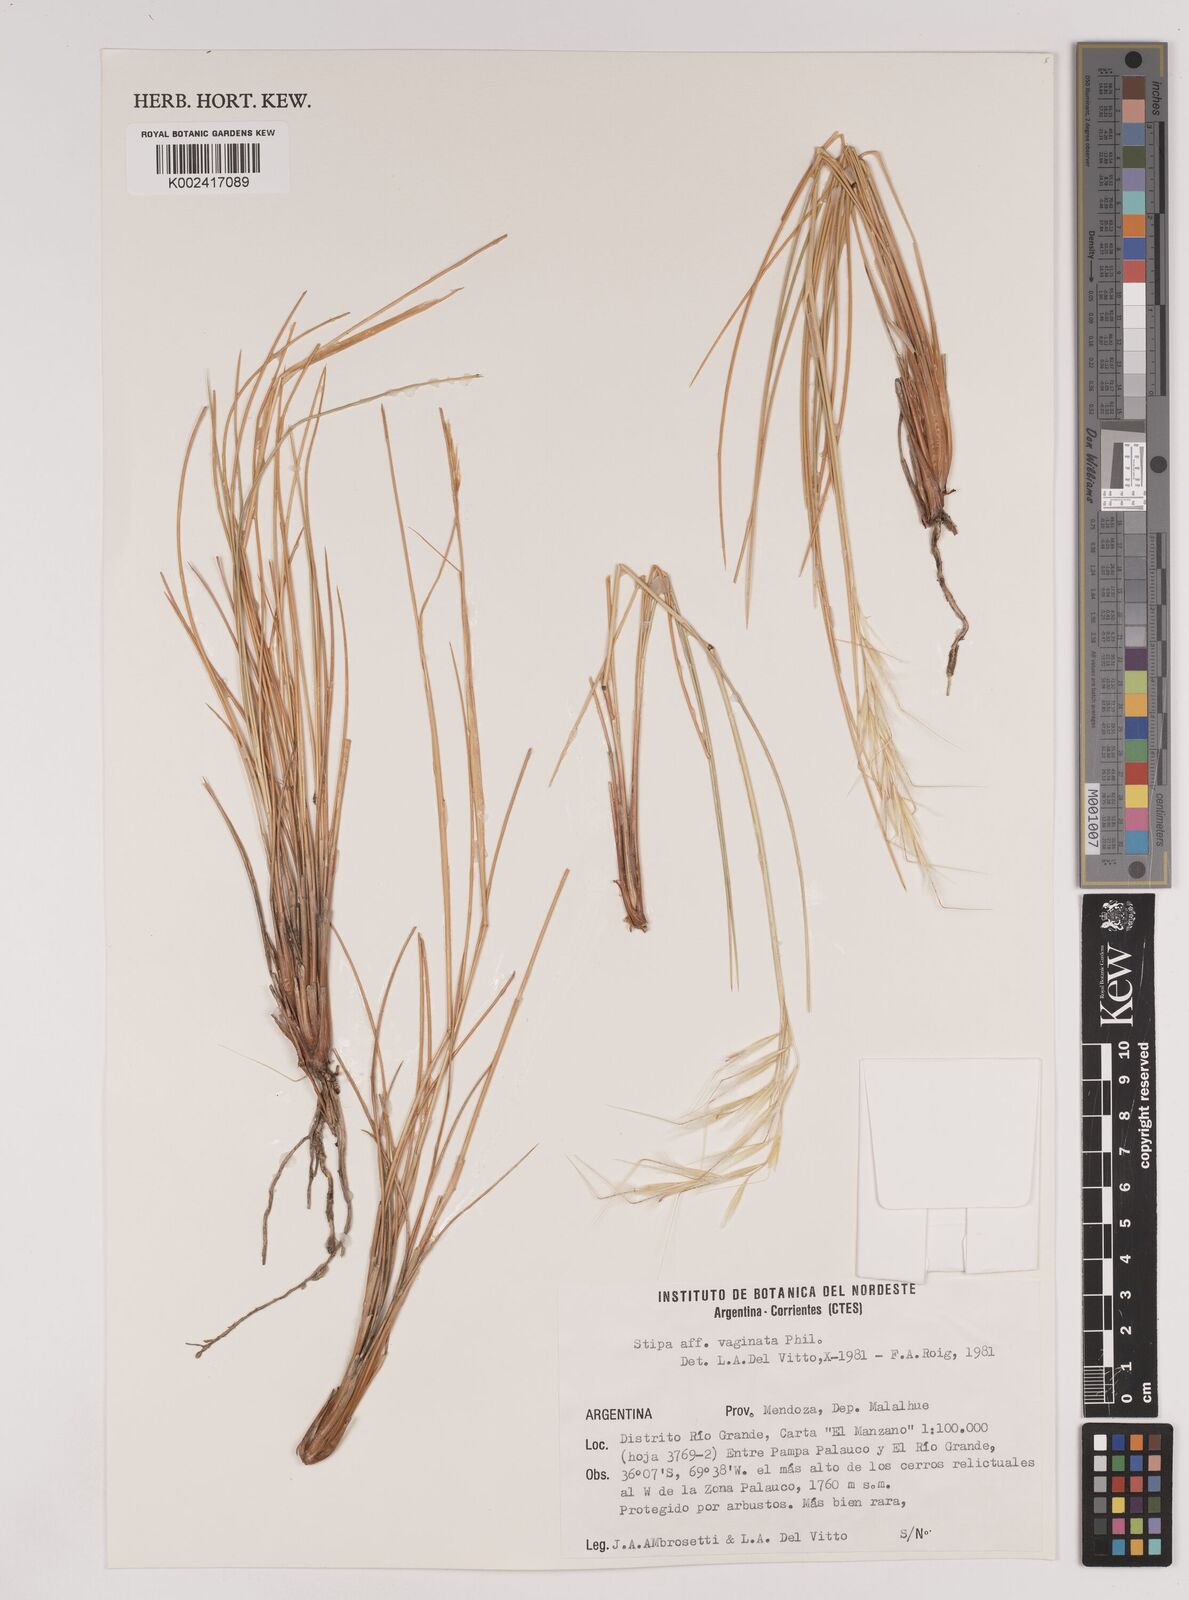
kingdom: Plantae
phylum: Tracheophyta
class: Liliopsida
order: Poales
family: Poaceae
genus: Pappostipa
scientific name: Pappostipa vaginata
